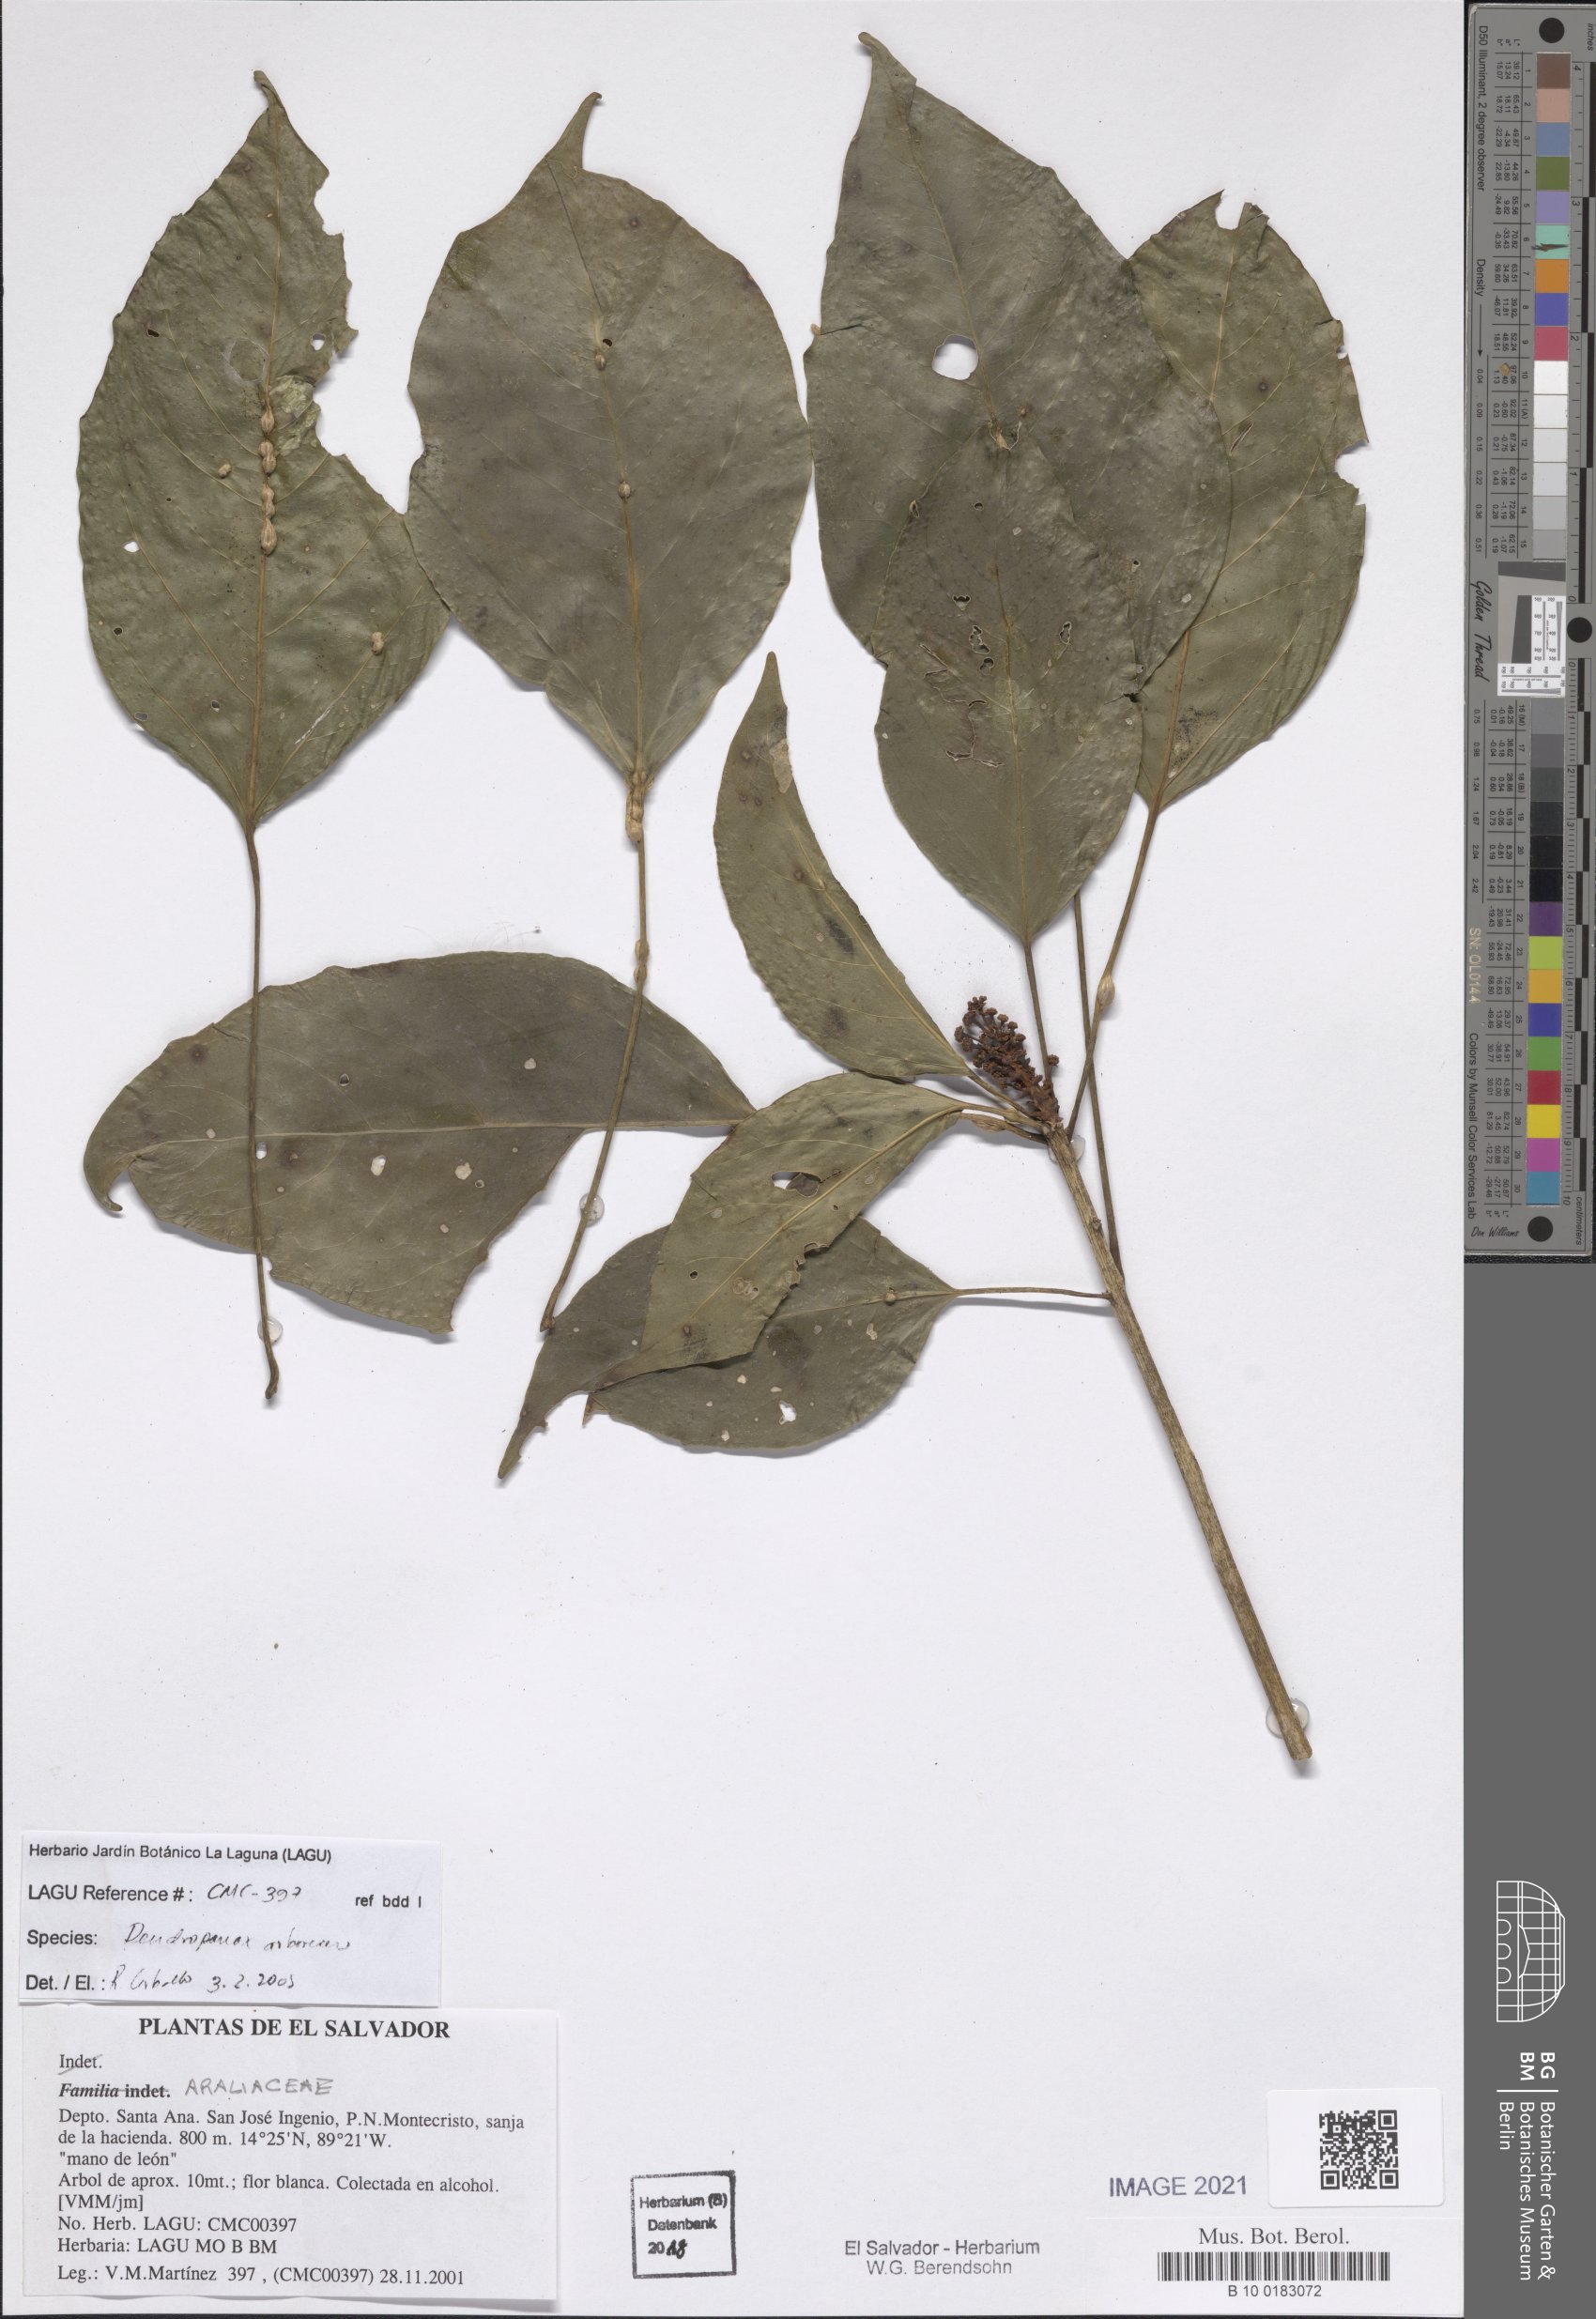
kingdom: Plantae
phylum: Tracheophyta
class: Magnoliopsida
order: Apiales
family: Araliaceae
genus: Dendropanax
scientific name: Dendropanax arboreus
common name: Potato-wood
